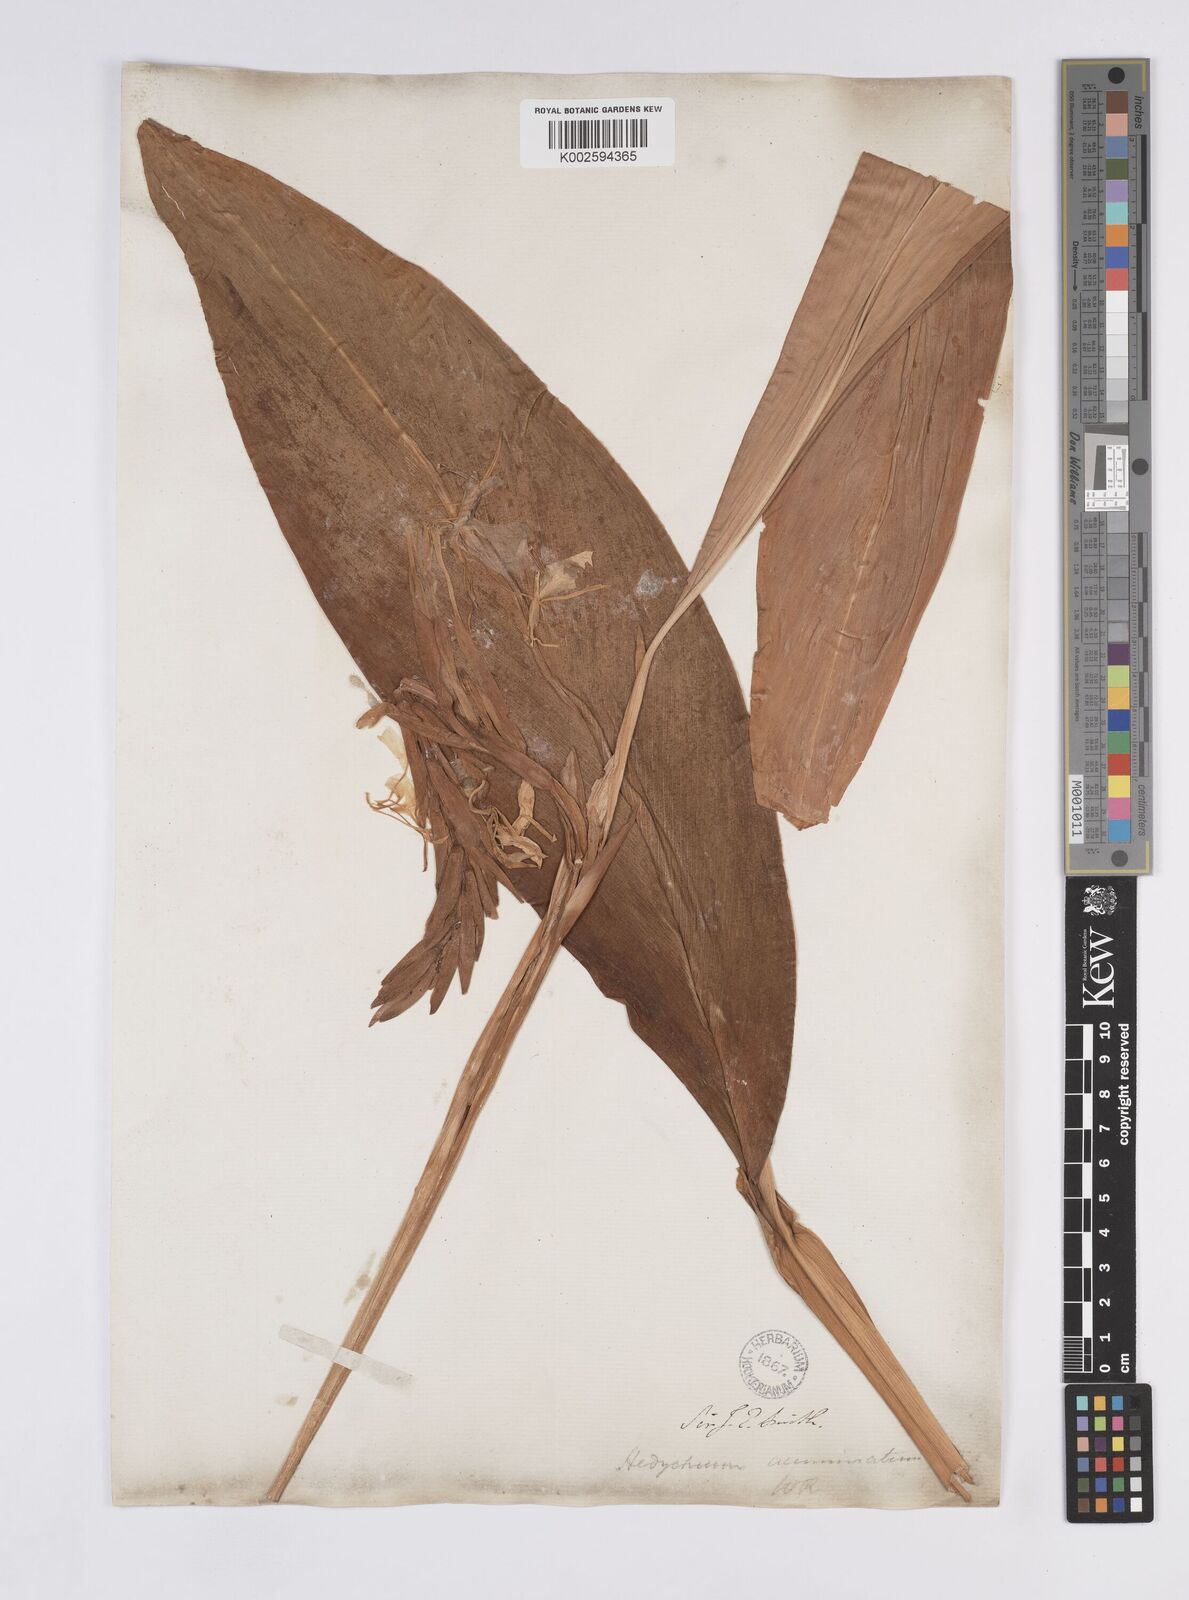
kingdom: Plantae
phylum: Tracheophyta
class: Liliopsida
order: Zingiberales
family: Zingiberaceae
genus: Hedychium
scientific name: Hedychium spicatum
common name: Spiked ginger-lily
